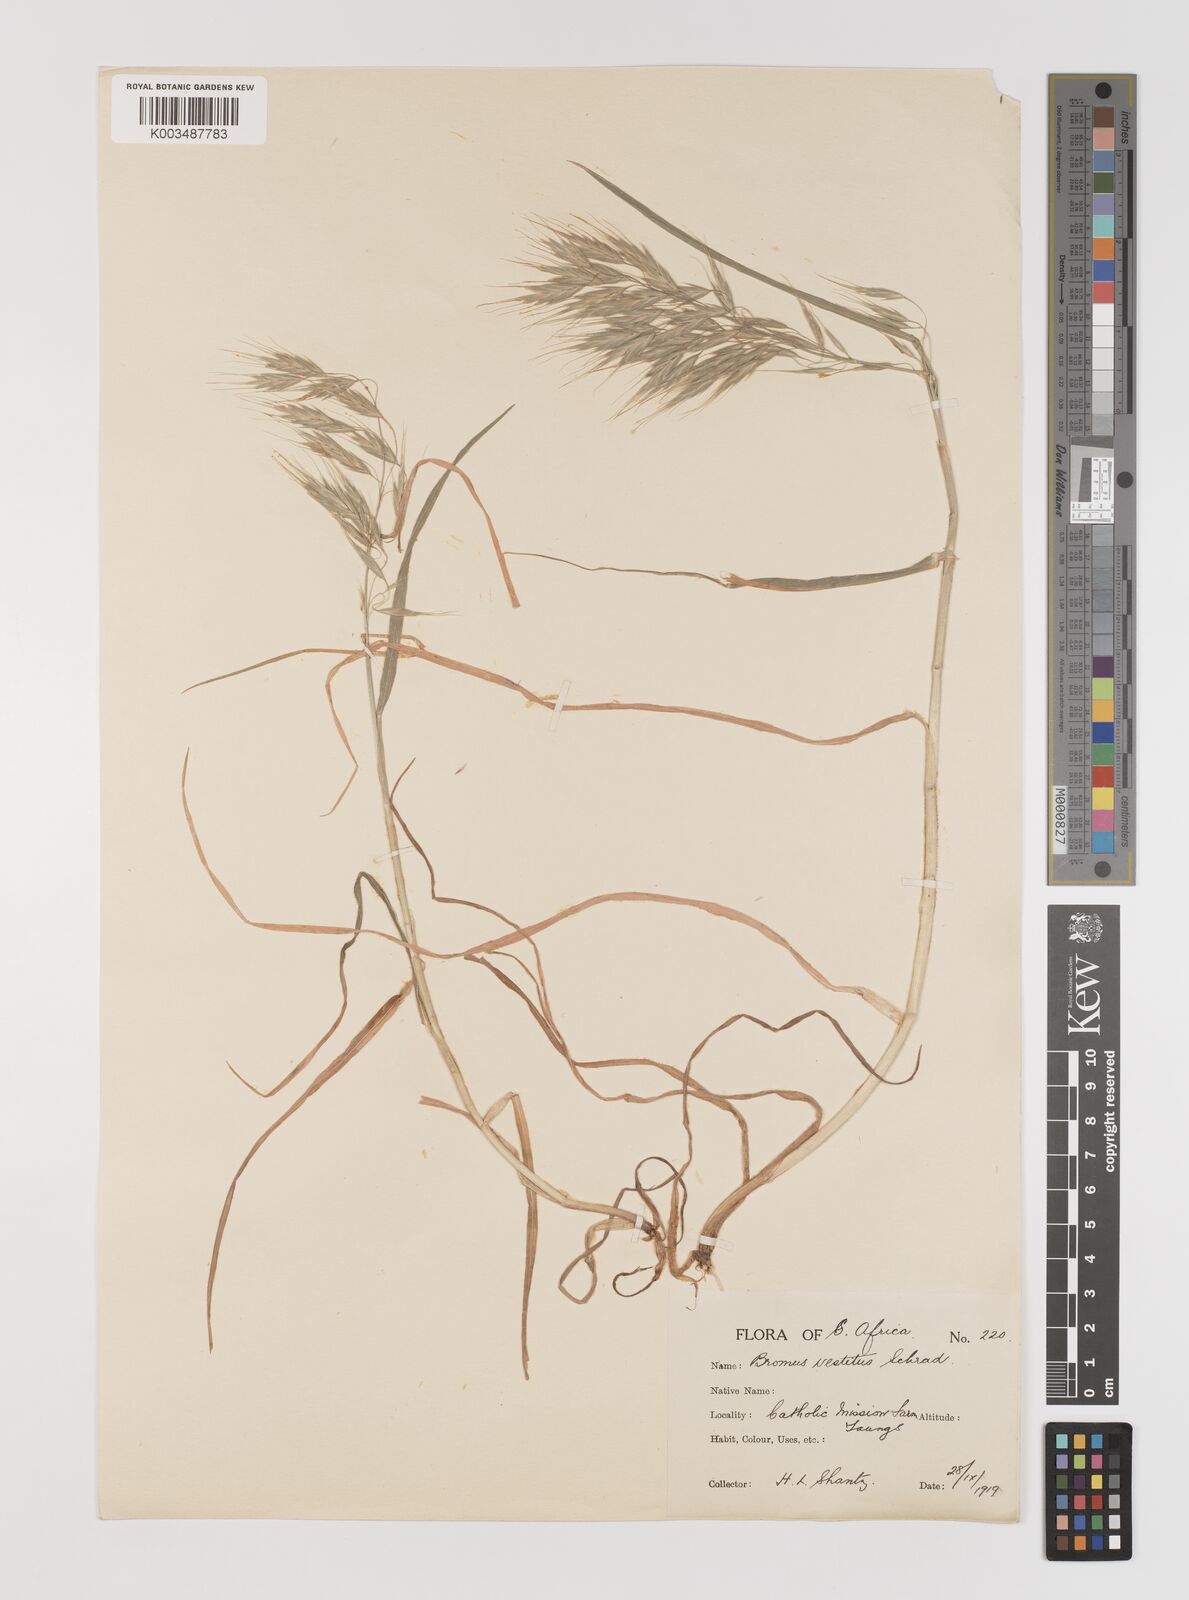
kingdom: Plantae
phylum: Tracheophyta
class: Liliopsida
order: Poales
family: Poaceae
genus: Bromus
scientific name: Bromus pectinatus
